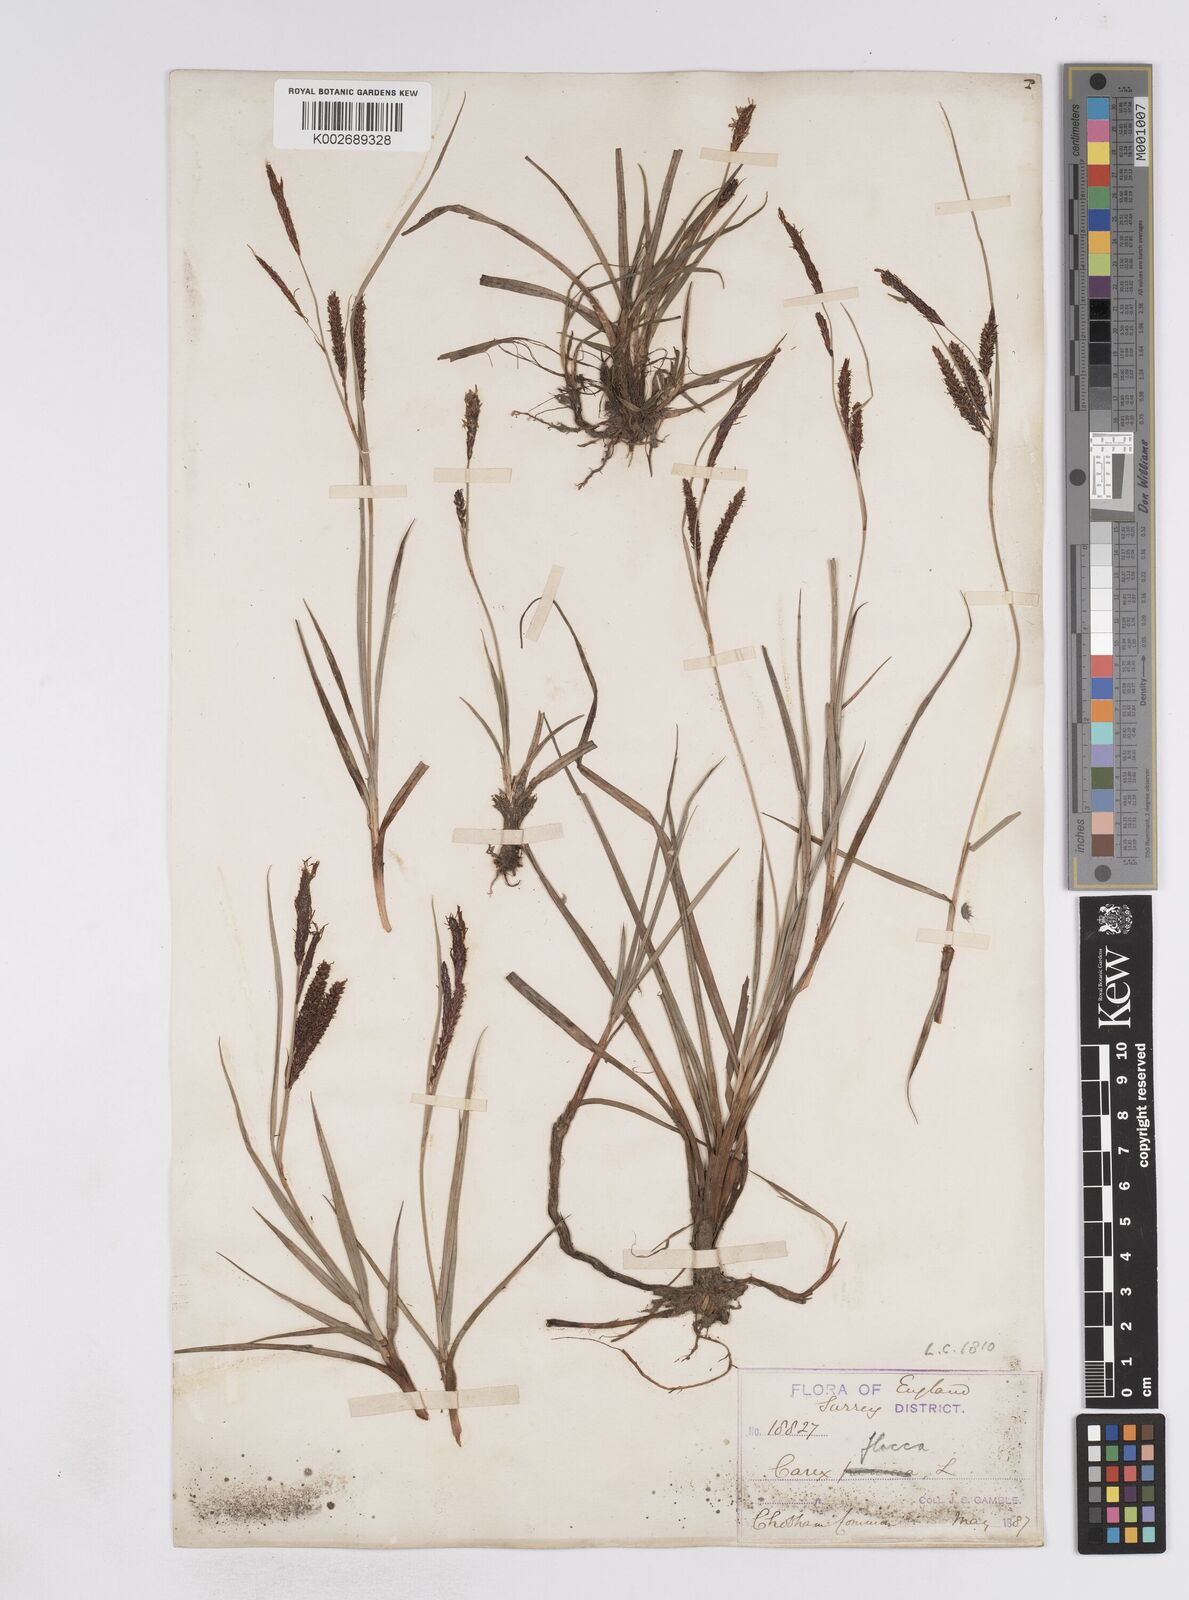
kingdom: Plantae
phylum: Tracheophyta
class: Liliopsida
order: Poales
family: Cyperaceae
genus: Carex
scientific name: Carex flacca
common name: Glaucous sedge
